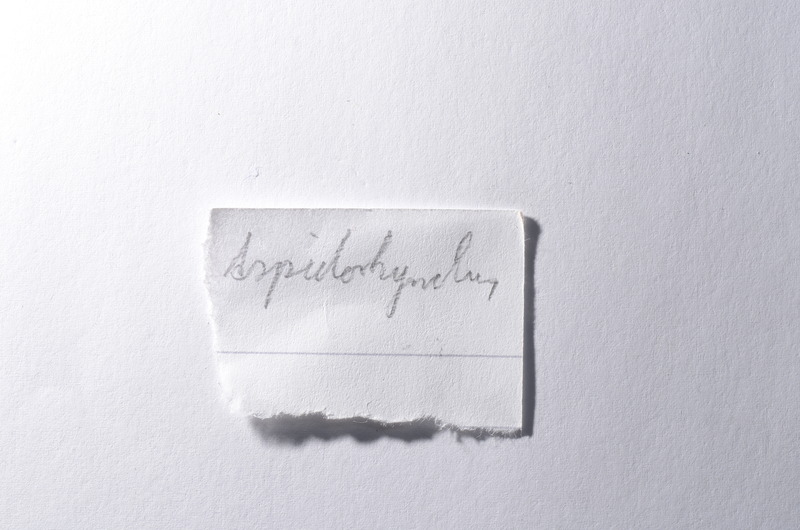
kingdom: Animalia
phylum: Chordata
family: Aspidorhynchidae
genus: Aspidorhynchus
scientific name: Aspidorhynchus
